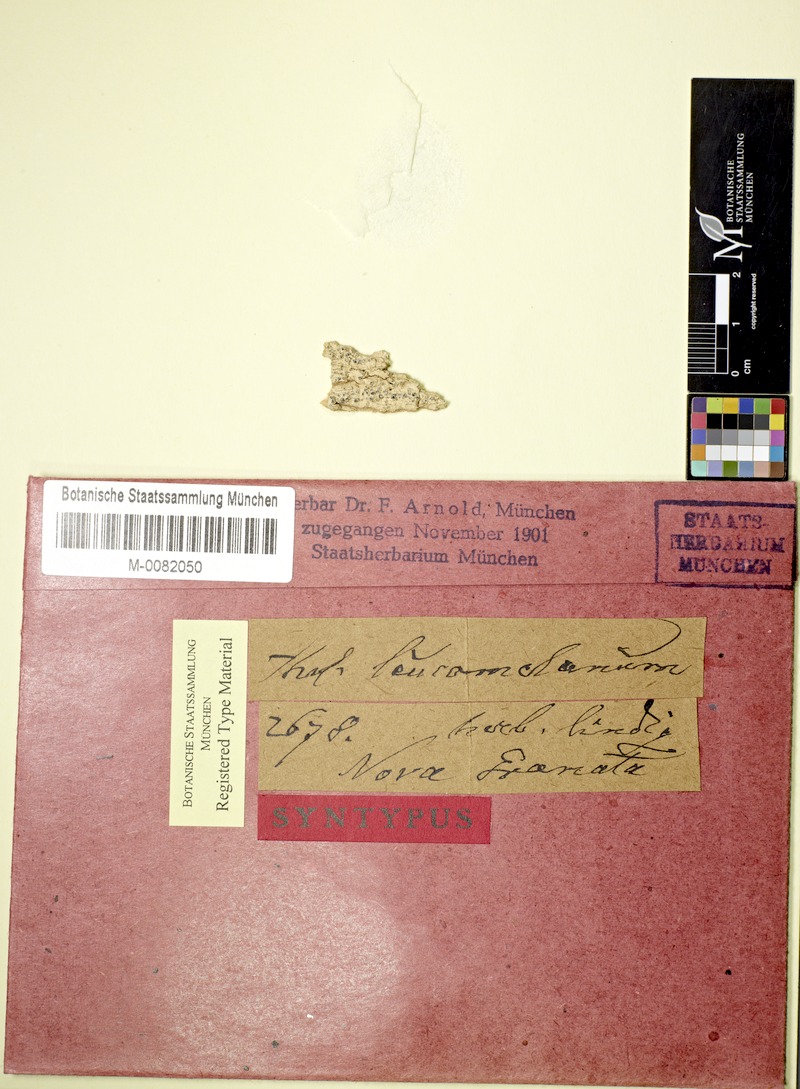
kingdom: Fungi
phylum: Ascomycota
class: Lecanoromycetes
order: Ostropales
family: Graphidaceae
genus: Thelotrema
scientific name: Thelotrema leucomelaenum
